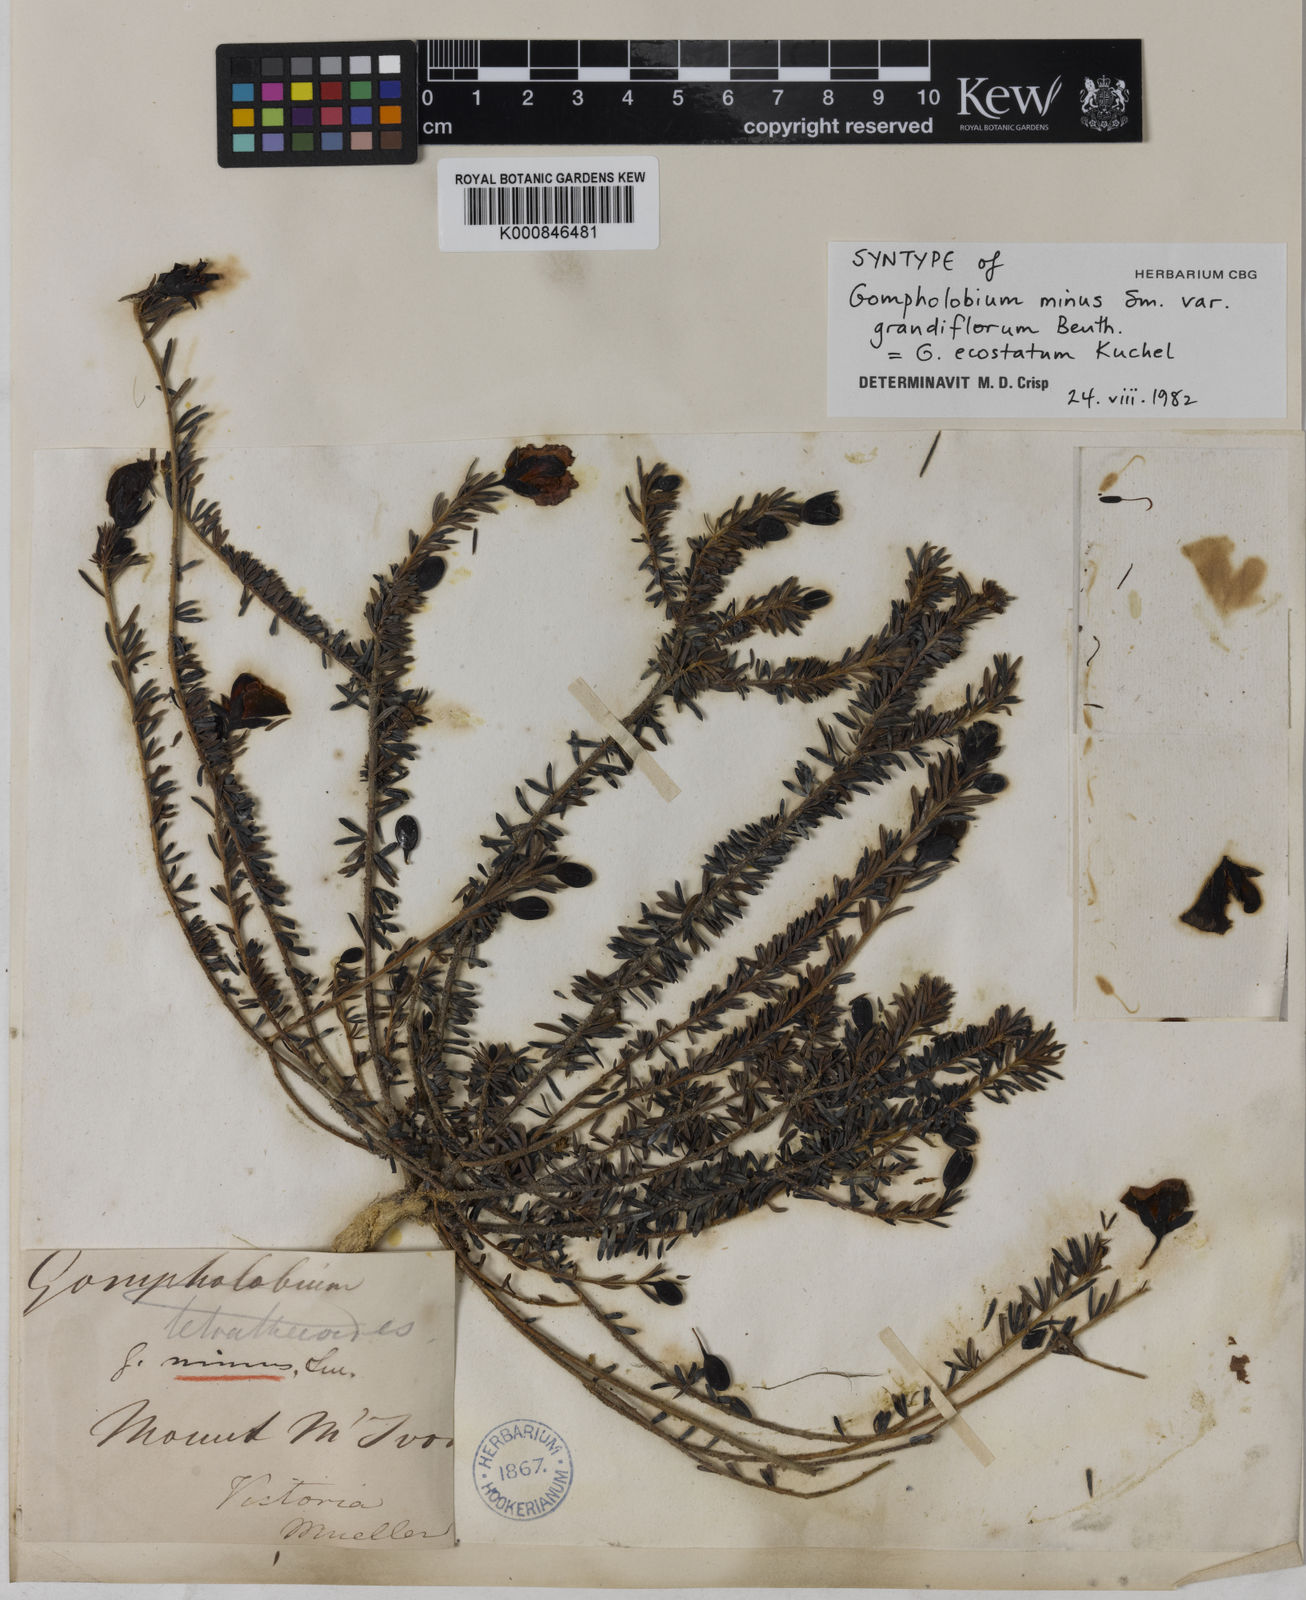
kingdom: Plantae
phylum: Tracheophyta
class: Magnoliopsida
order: Fabales
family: Fabaceae
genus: Gompholobium
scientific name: Gompholobium ecostatum
